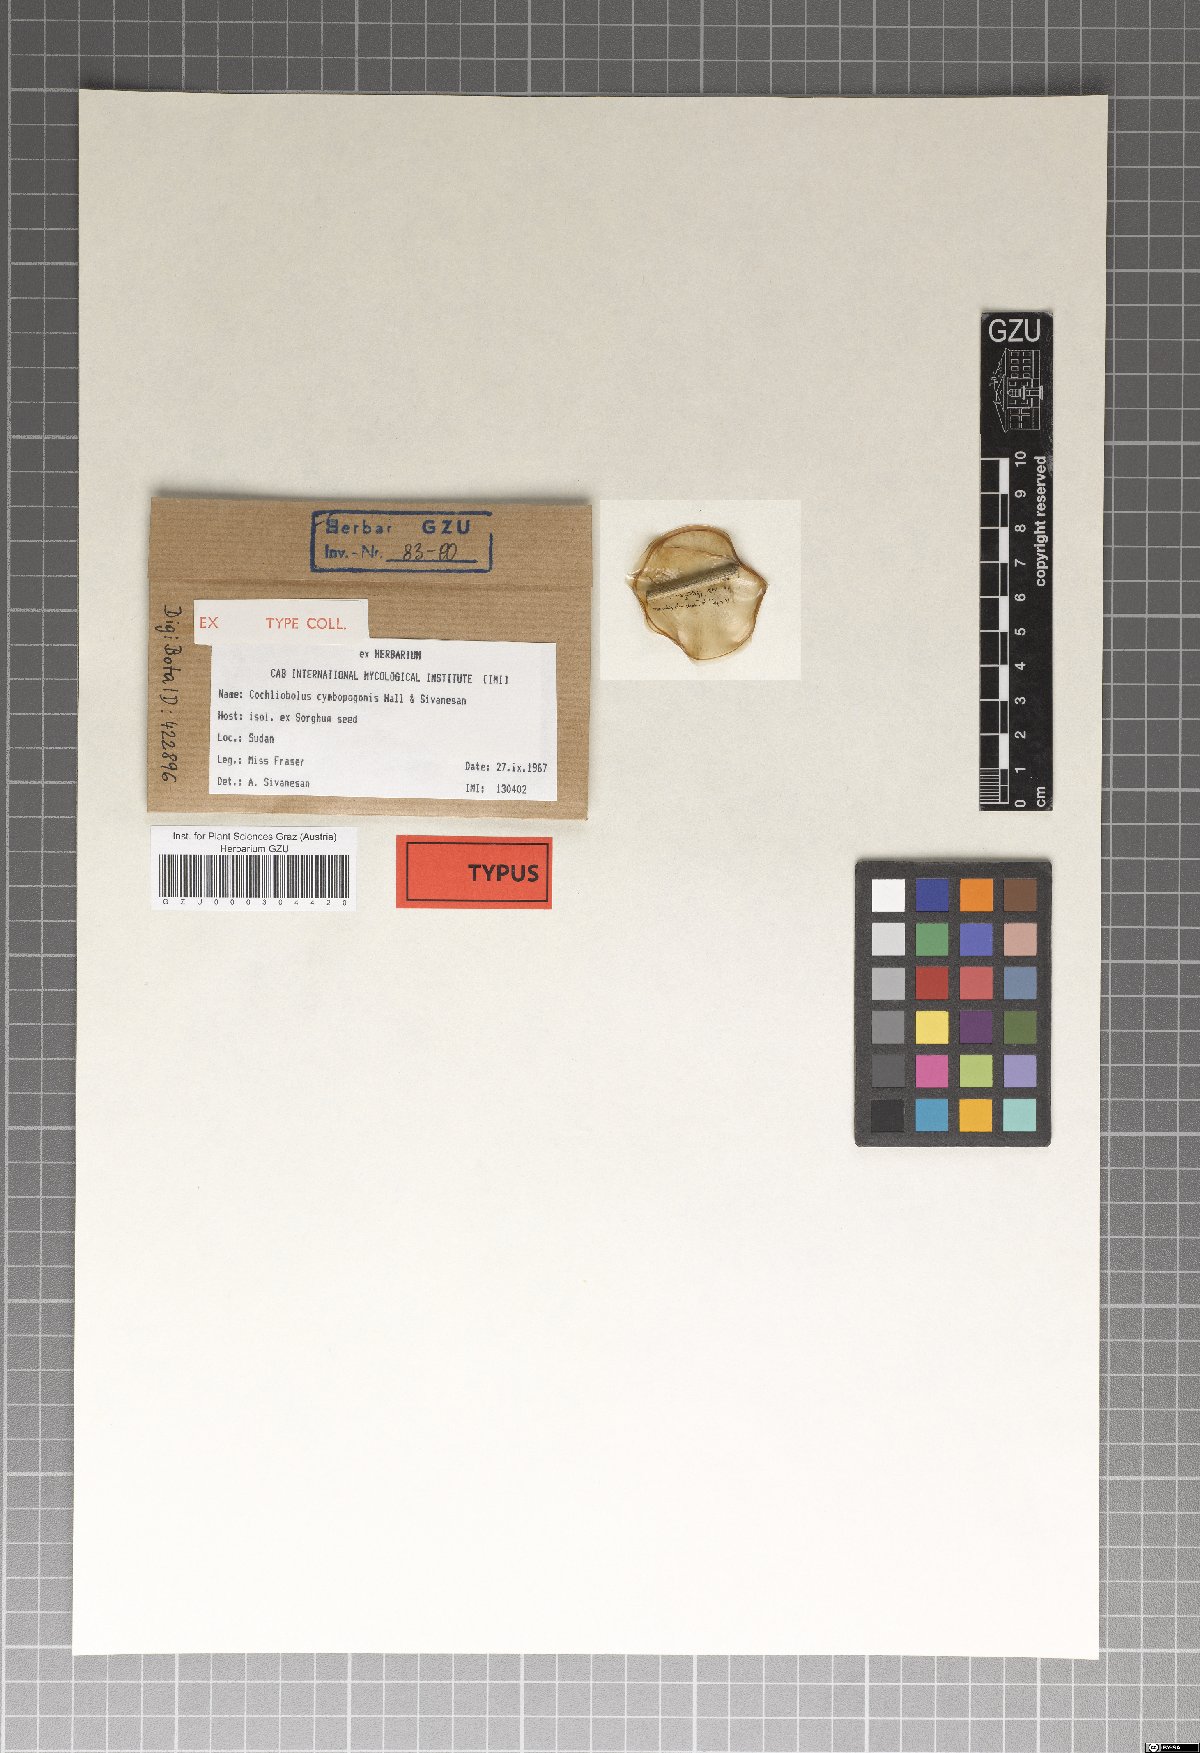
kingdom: Fungi
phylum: Ascomycota
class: Dothideomycetes
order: Pleosporales
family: Pleosporaceae
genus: Curvularia
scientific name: Curvularia cymbopogonis
